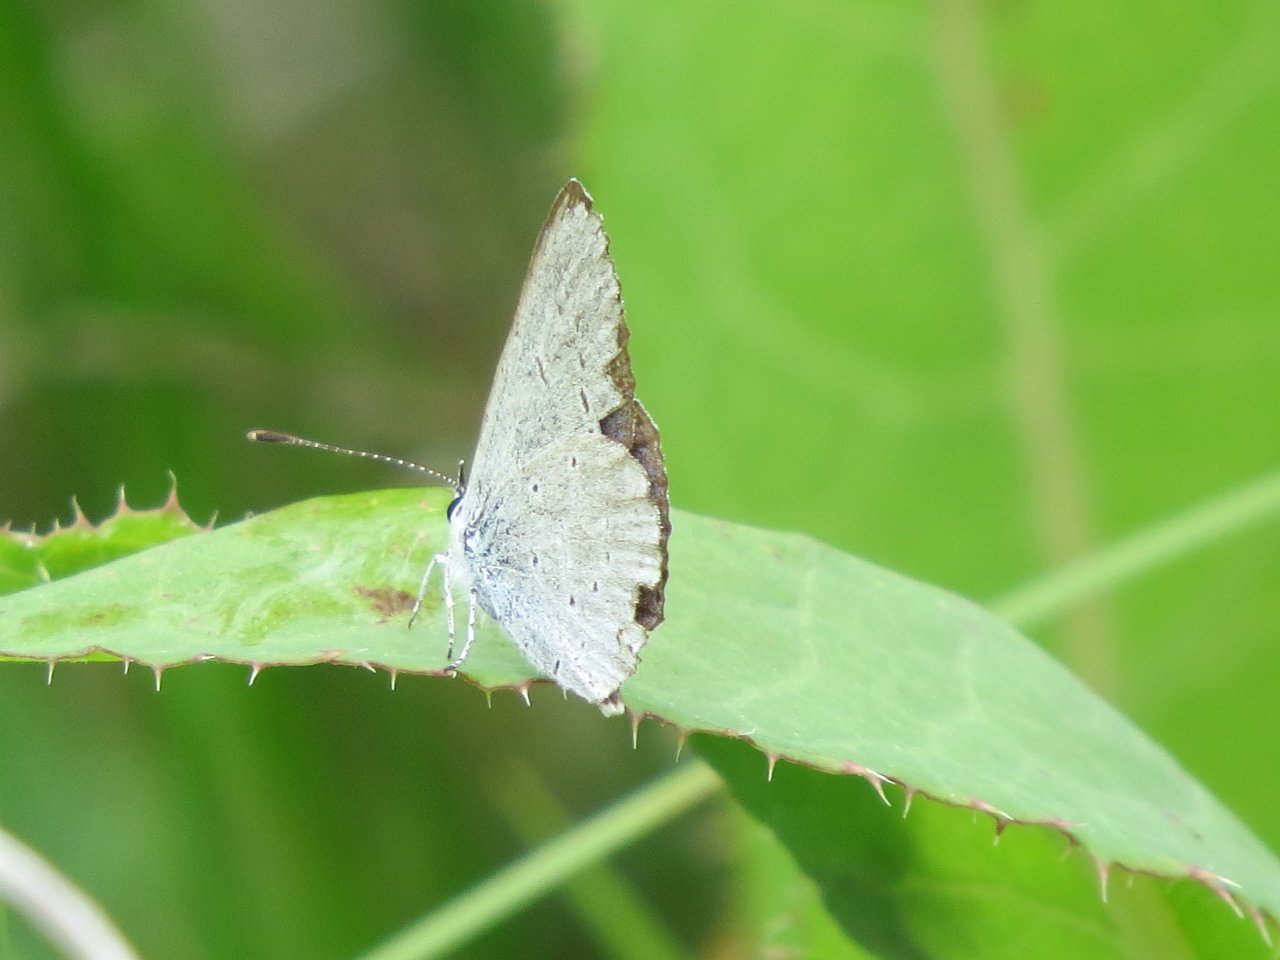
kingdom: Animalia
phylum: Arthropoda
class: Insecta
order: Lepidoptera
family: Lycaenidae
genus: Elkalyce
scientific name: Elkalyce amyntula
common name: Western Tailed-Blue
